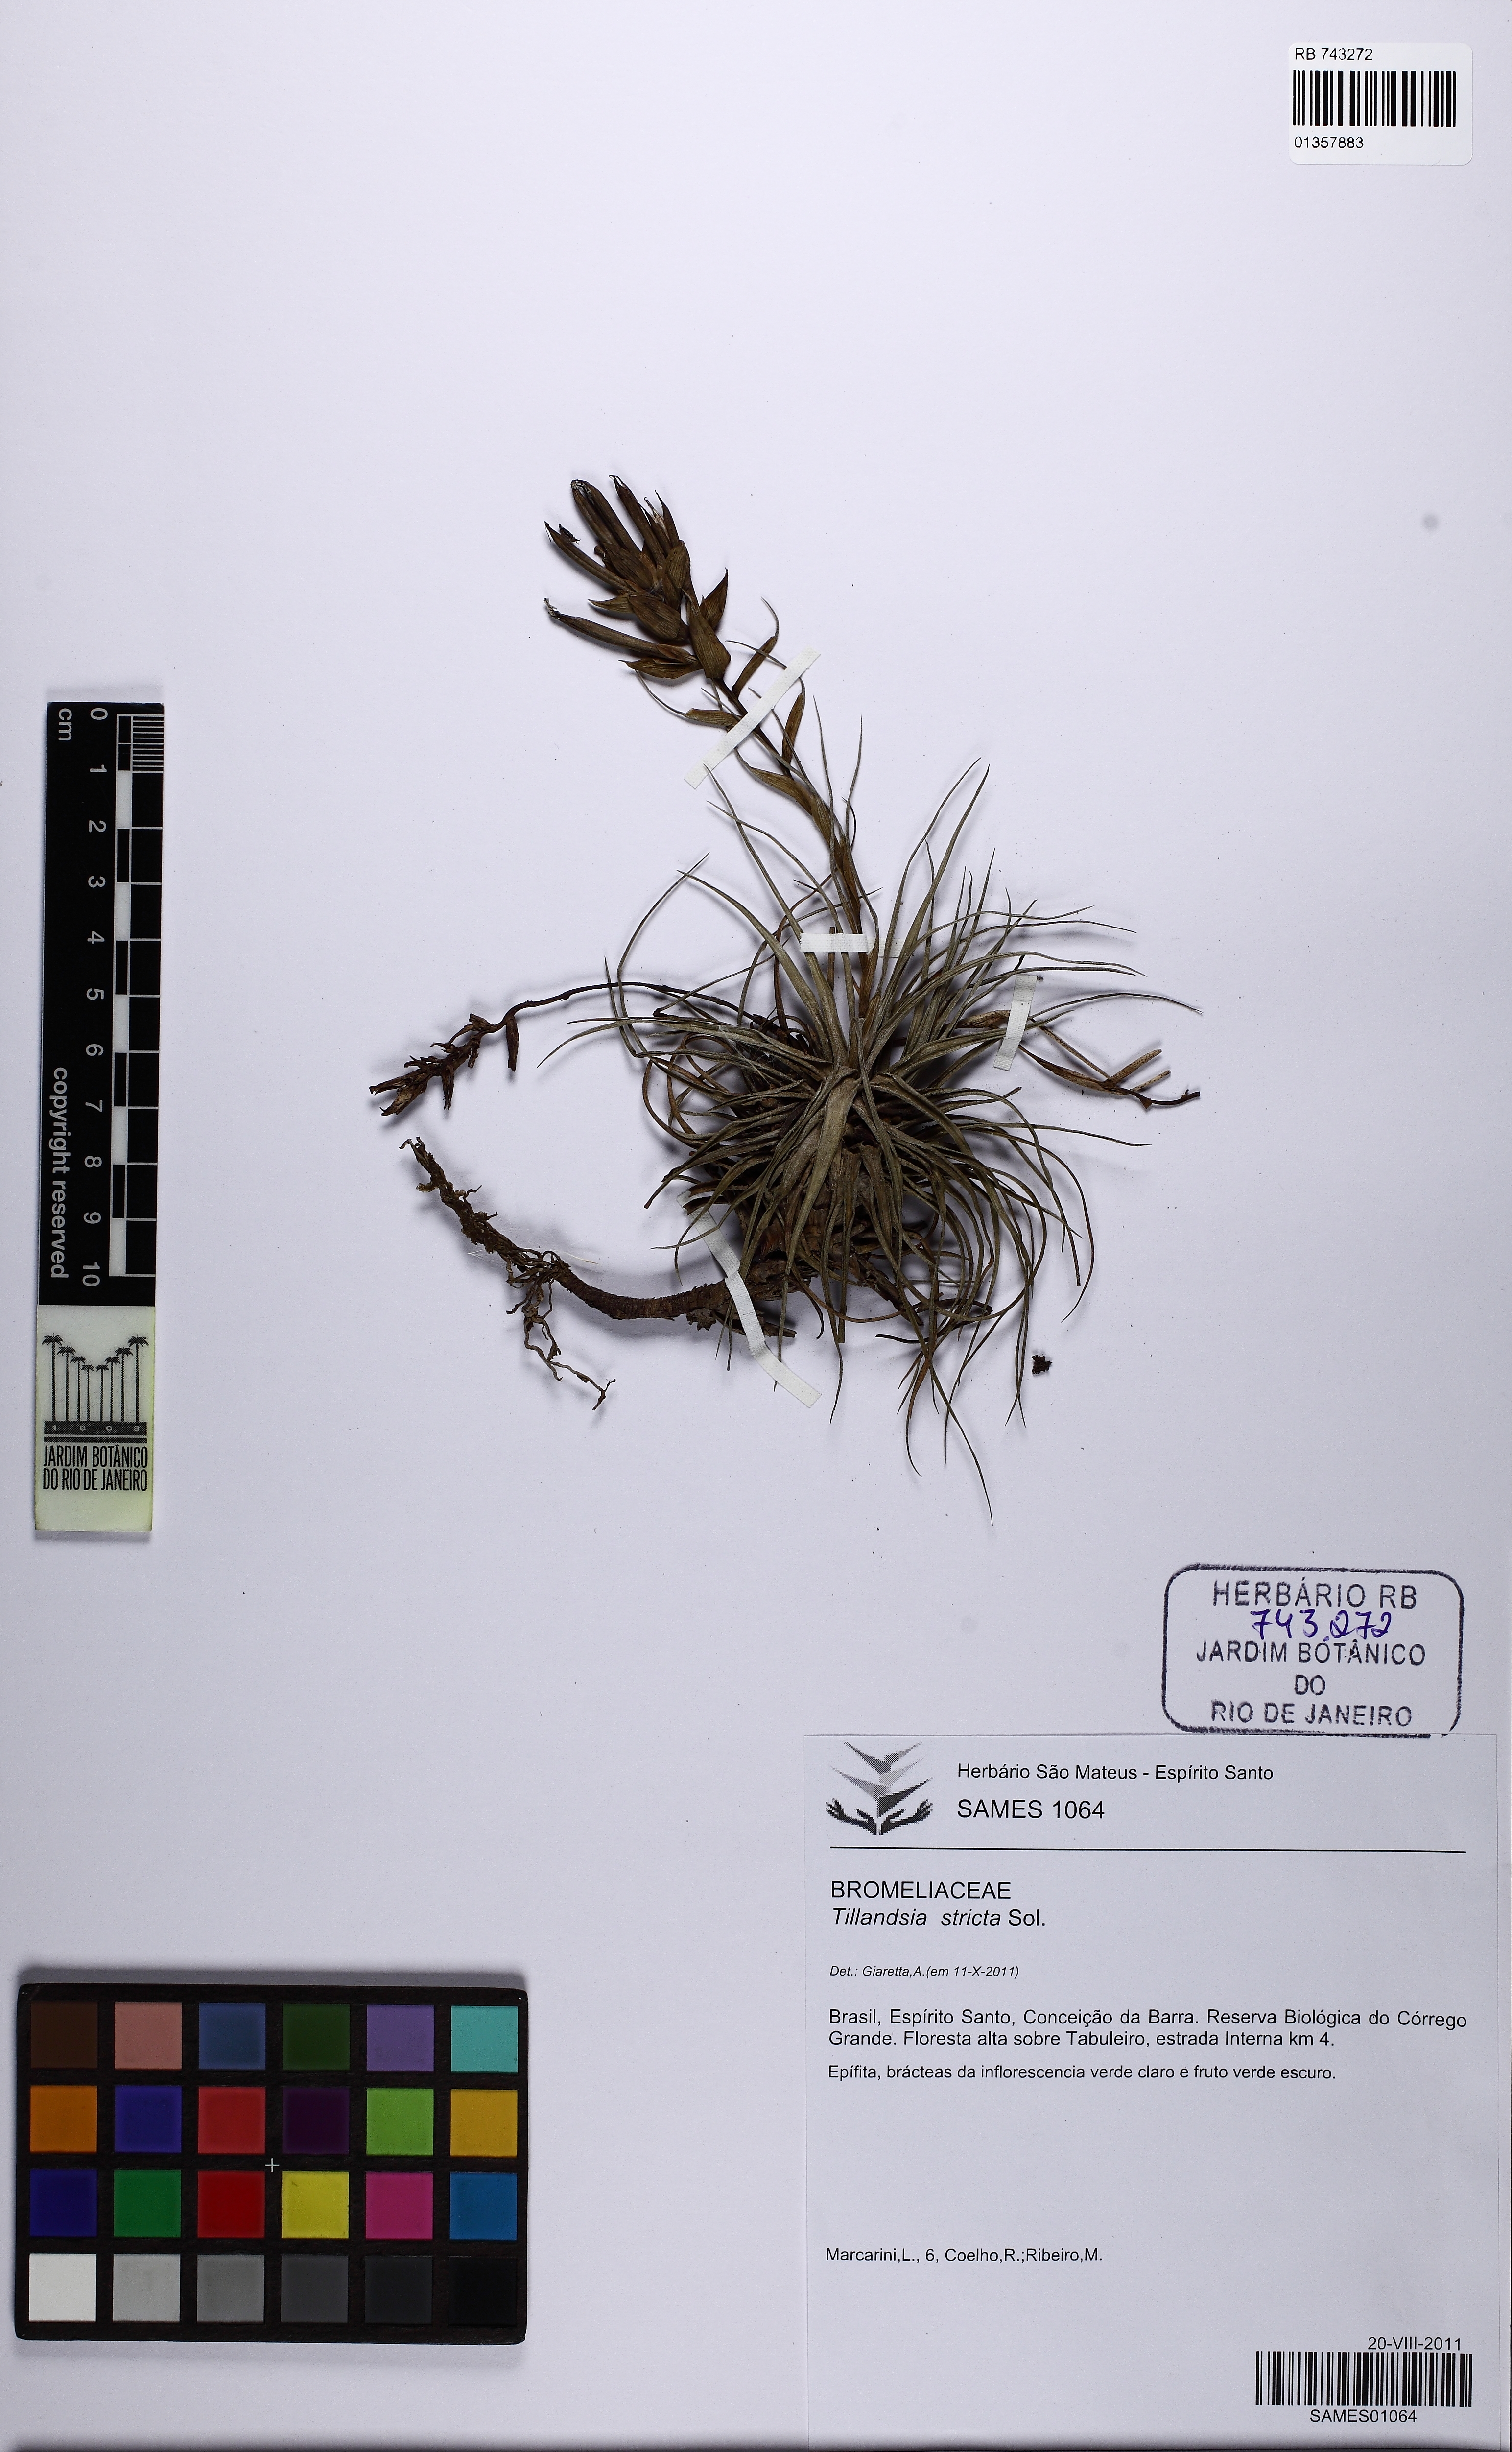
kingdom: Plantae
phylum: Tracheophyta
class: Liliopsida
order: Poales
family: Bromeliaceae
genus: Tillandsia
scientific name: Tillandsia stricta
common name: Airplant
